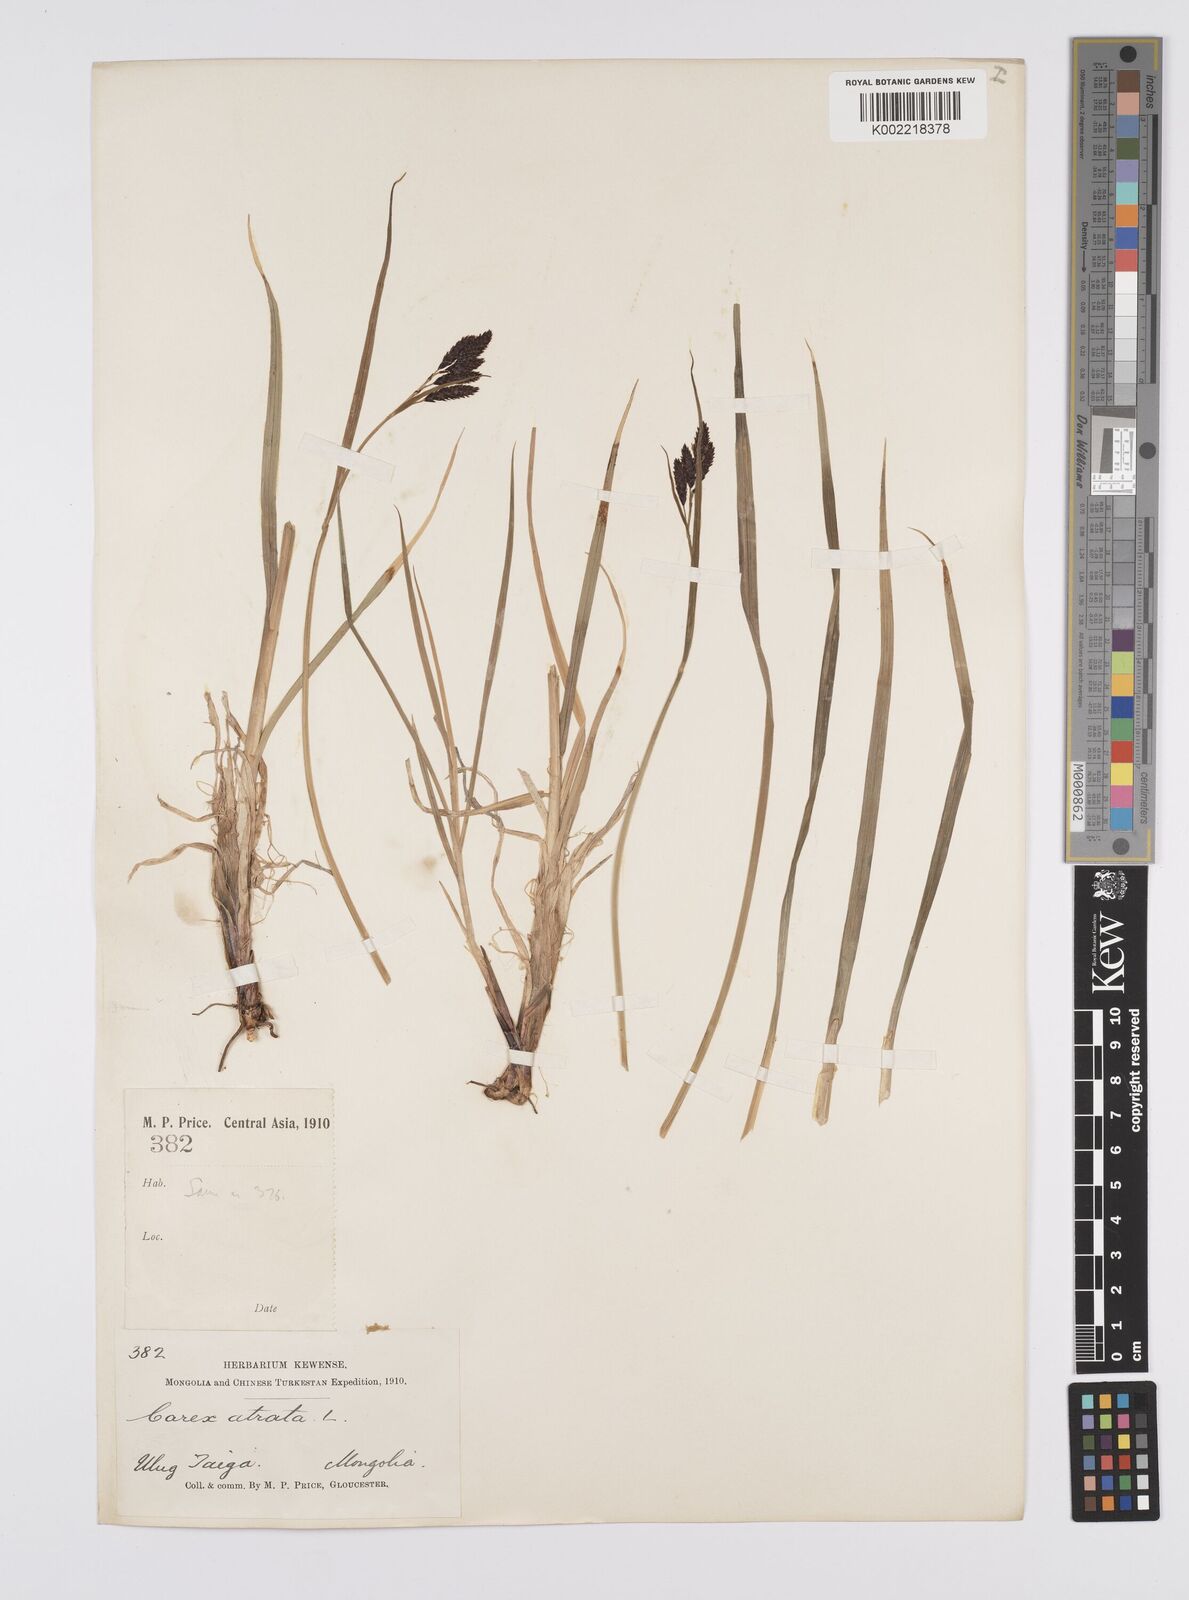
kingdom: Plantae
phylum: Tracheophyta
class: Liliopsida
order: Poales
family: Cyperaceae
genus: Carex
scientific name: Carex atrata
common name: Black alpine sedge
